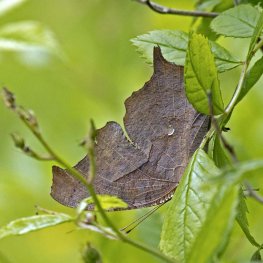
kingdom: Animalia
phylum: Arthropoda
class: Insecta
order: Lepidoptera
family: Nymphalidae
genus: Polygonia
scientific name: Polygonia interrogationis
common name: Question Mark
